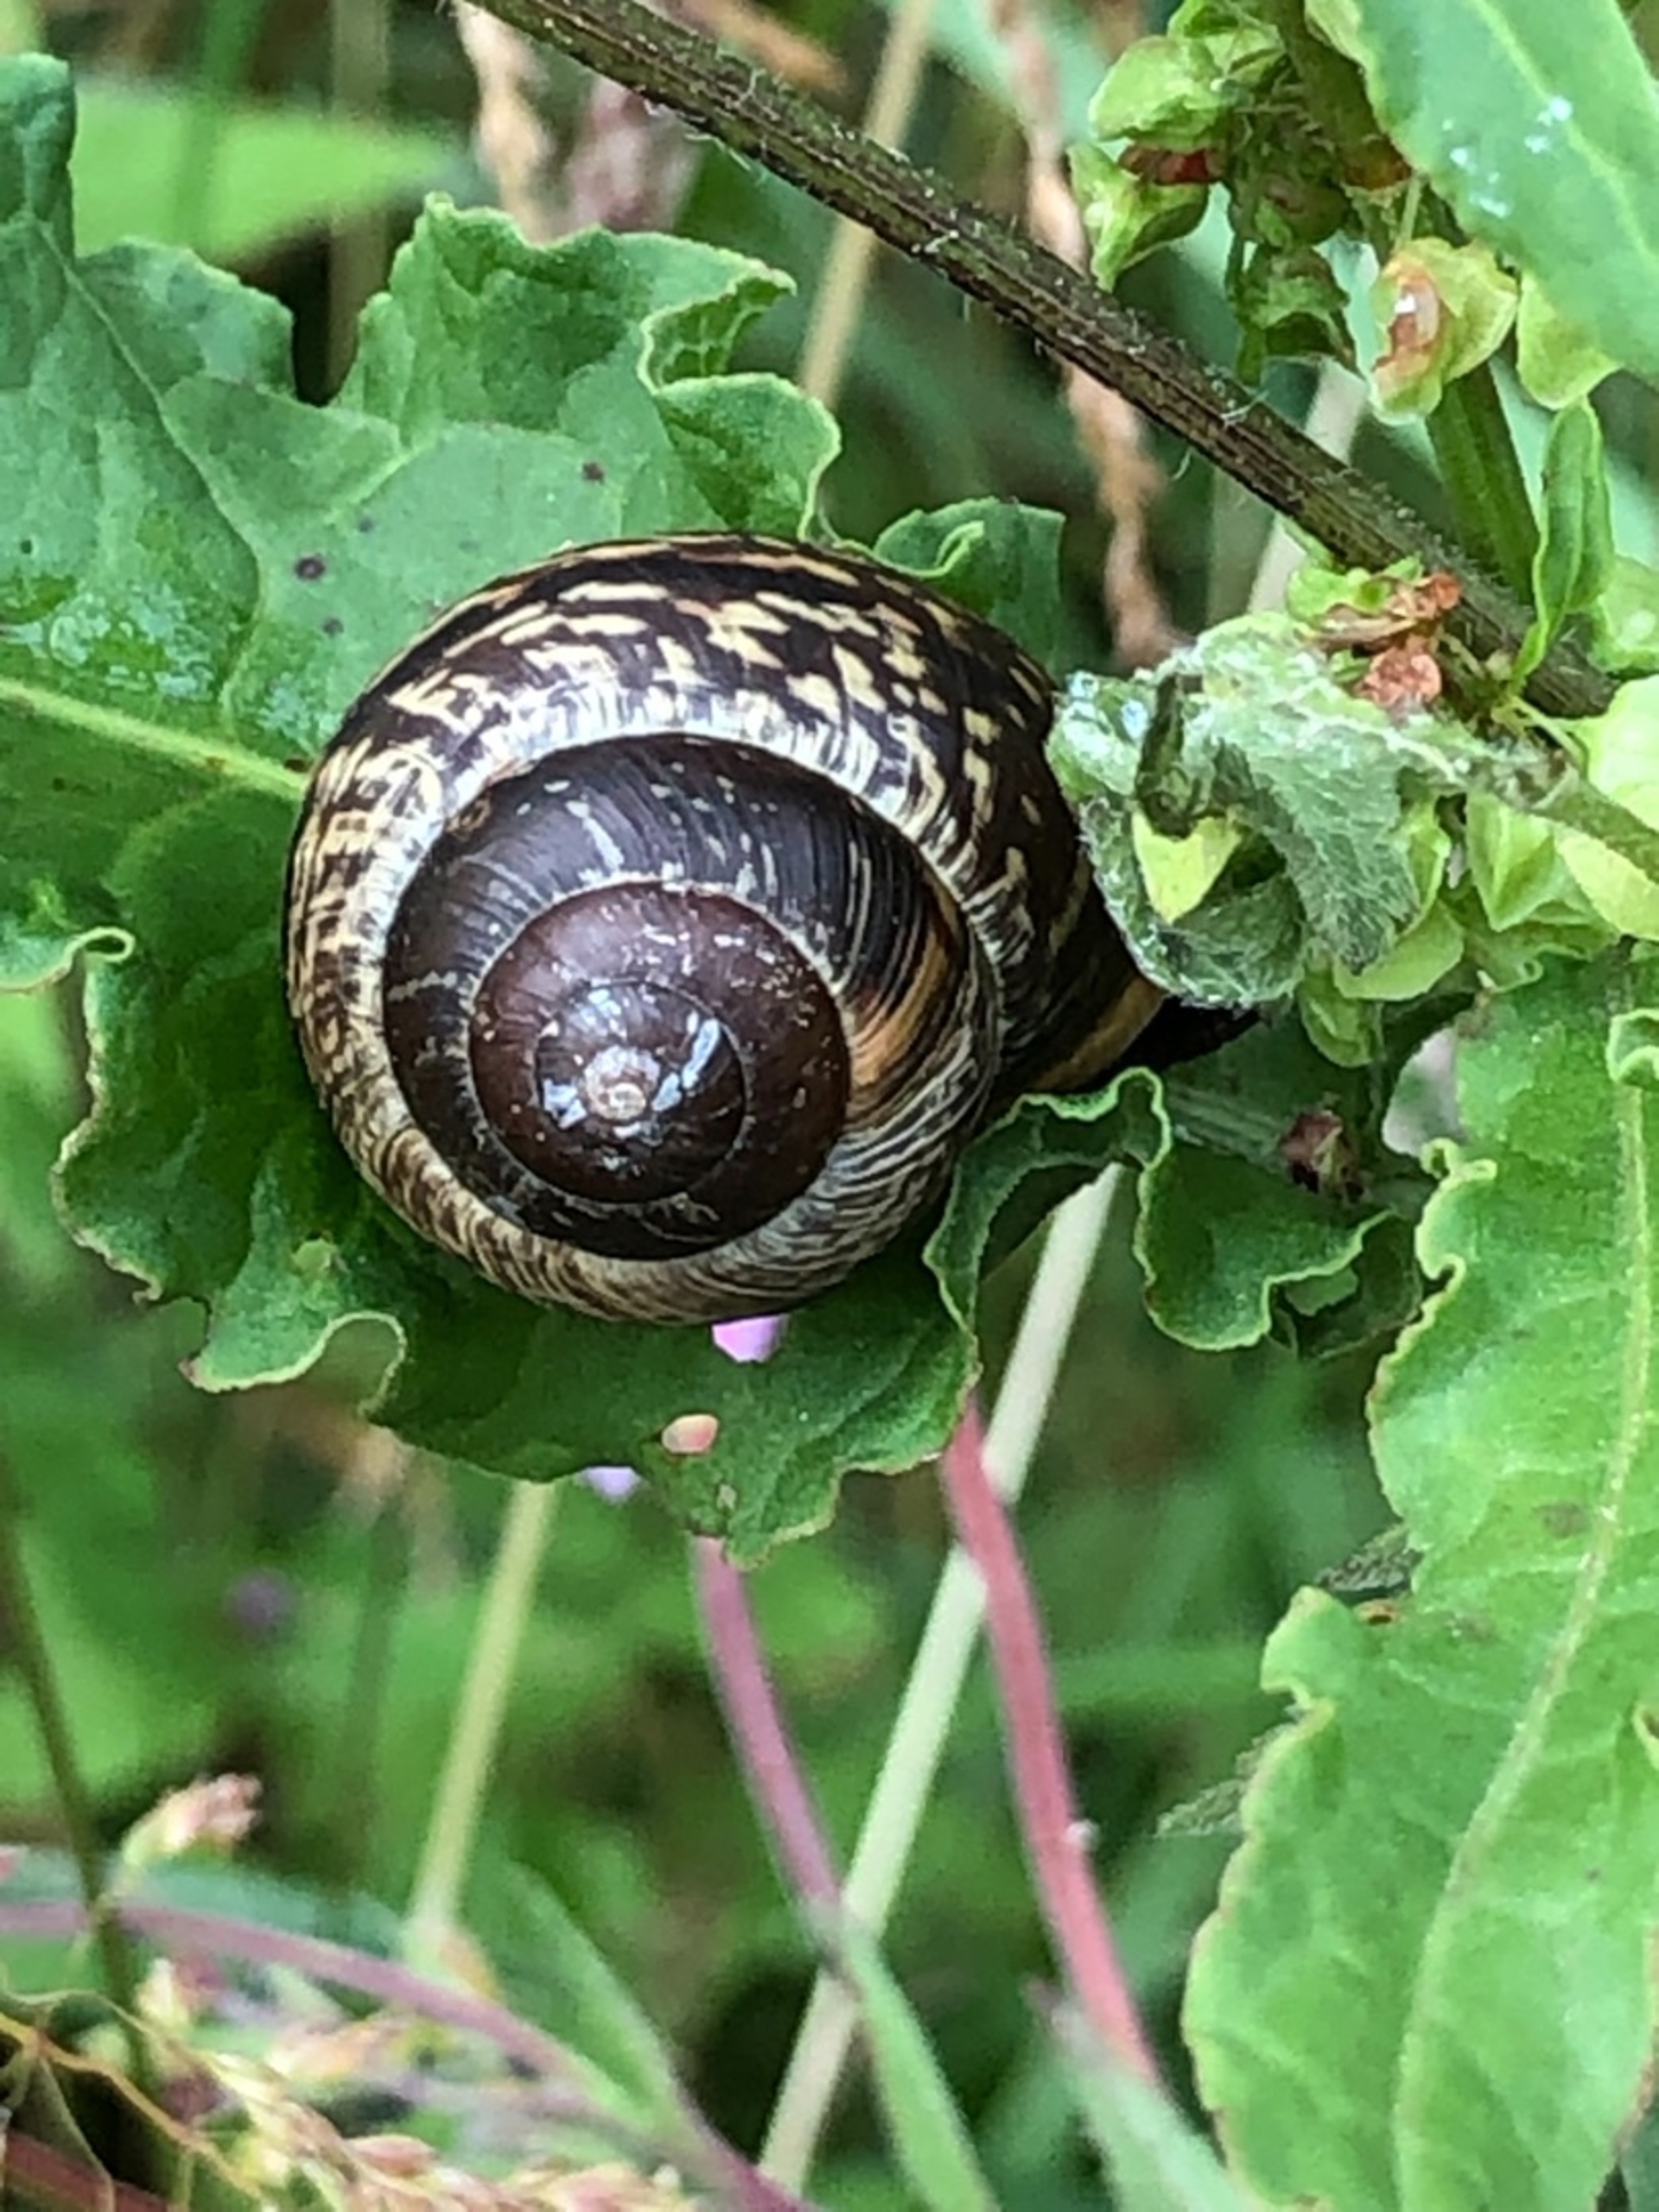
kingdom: Animalia
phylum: Mollusca
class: Gastropoda
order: Stylommatophora
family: Helicidae
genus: Arianta
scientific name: Arianta arbustorum
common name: Kratsnegl
